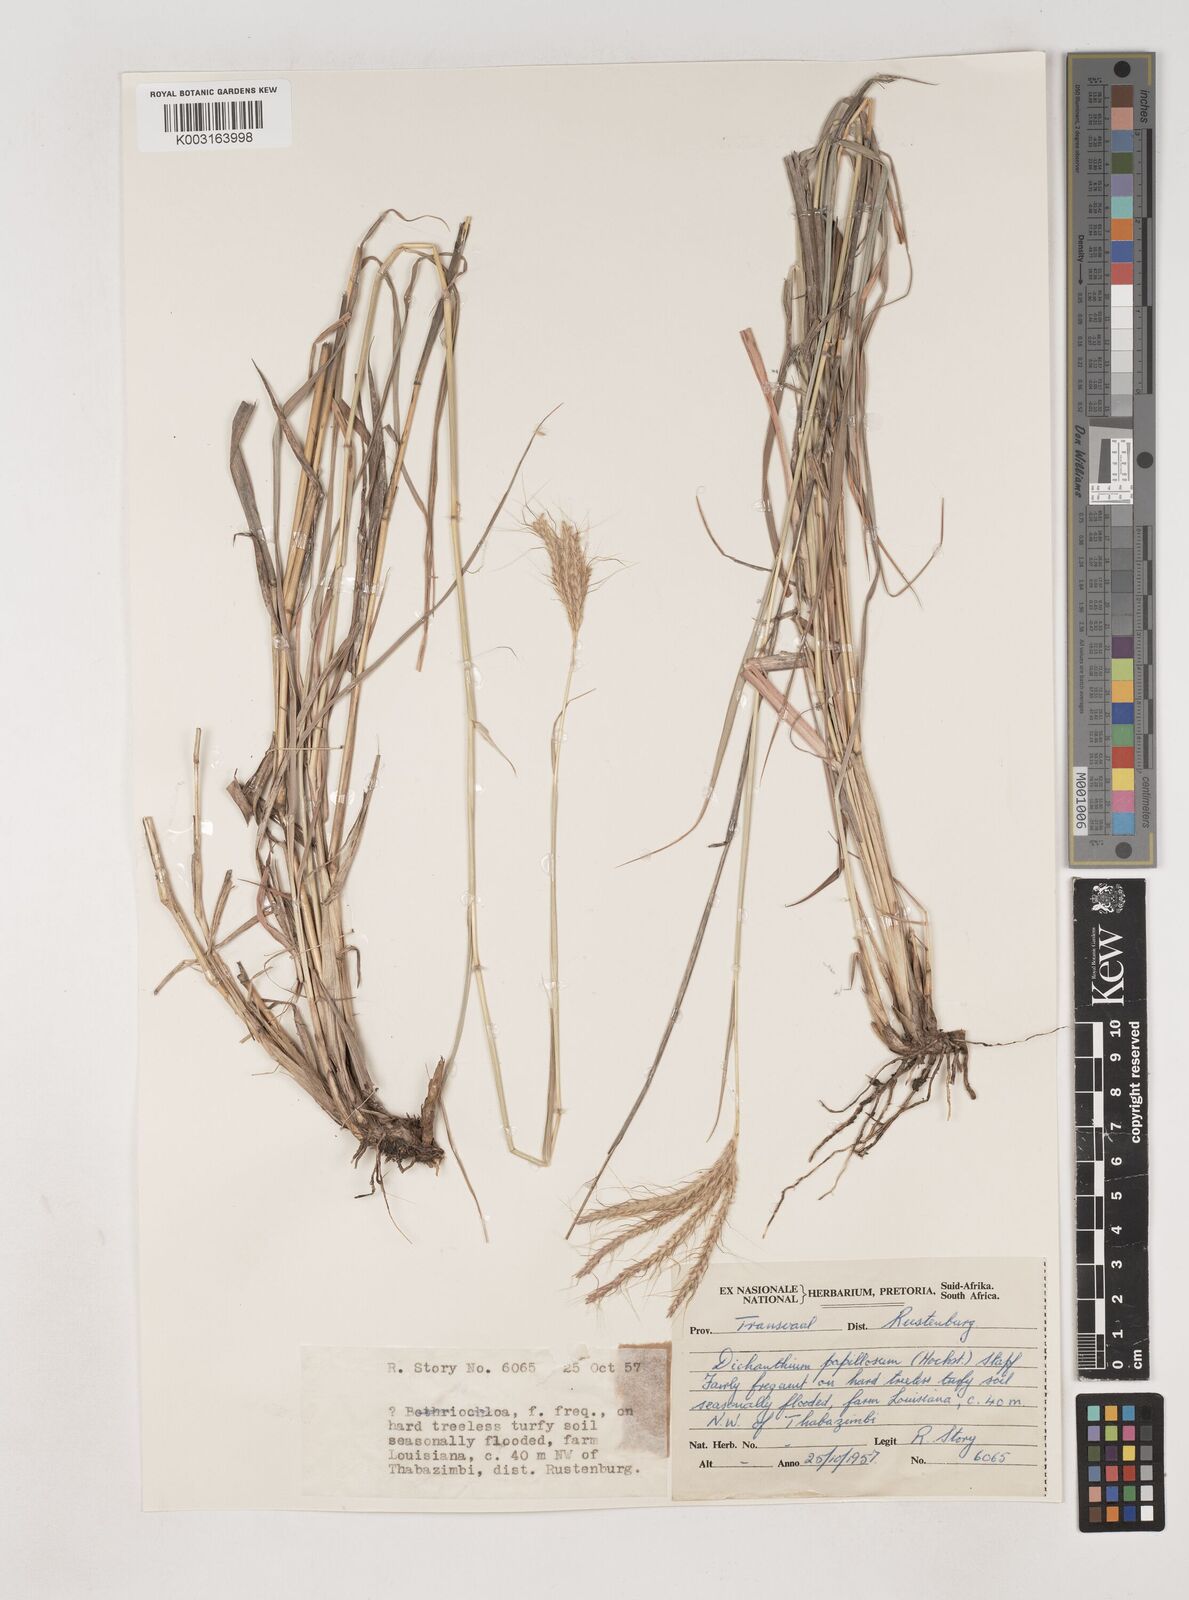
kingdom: Plantae
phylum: Tracheophyta
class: Liliopsida
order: Poales
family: Poaceae
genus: Dichanthium
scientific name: Dichanthium annulatum
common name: Kleberg's bluestem
